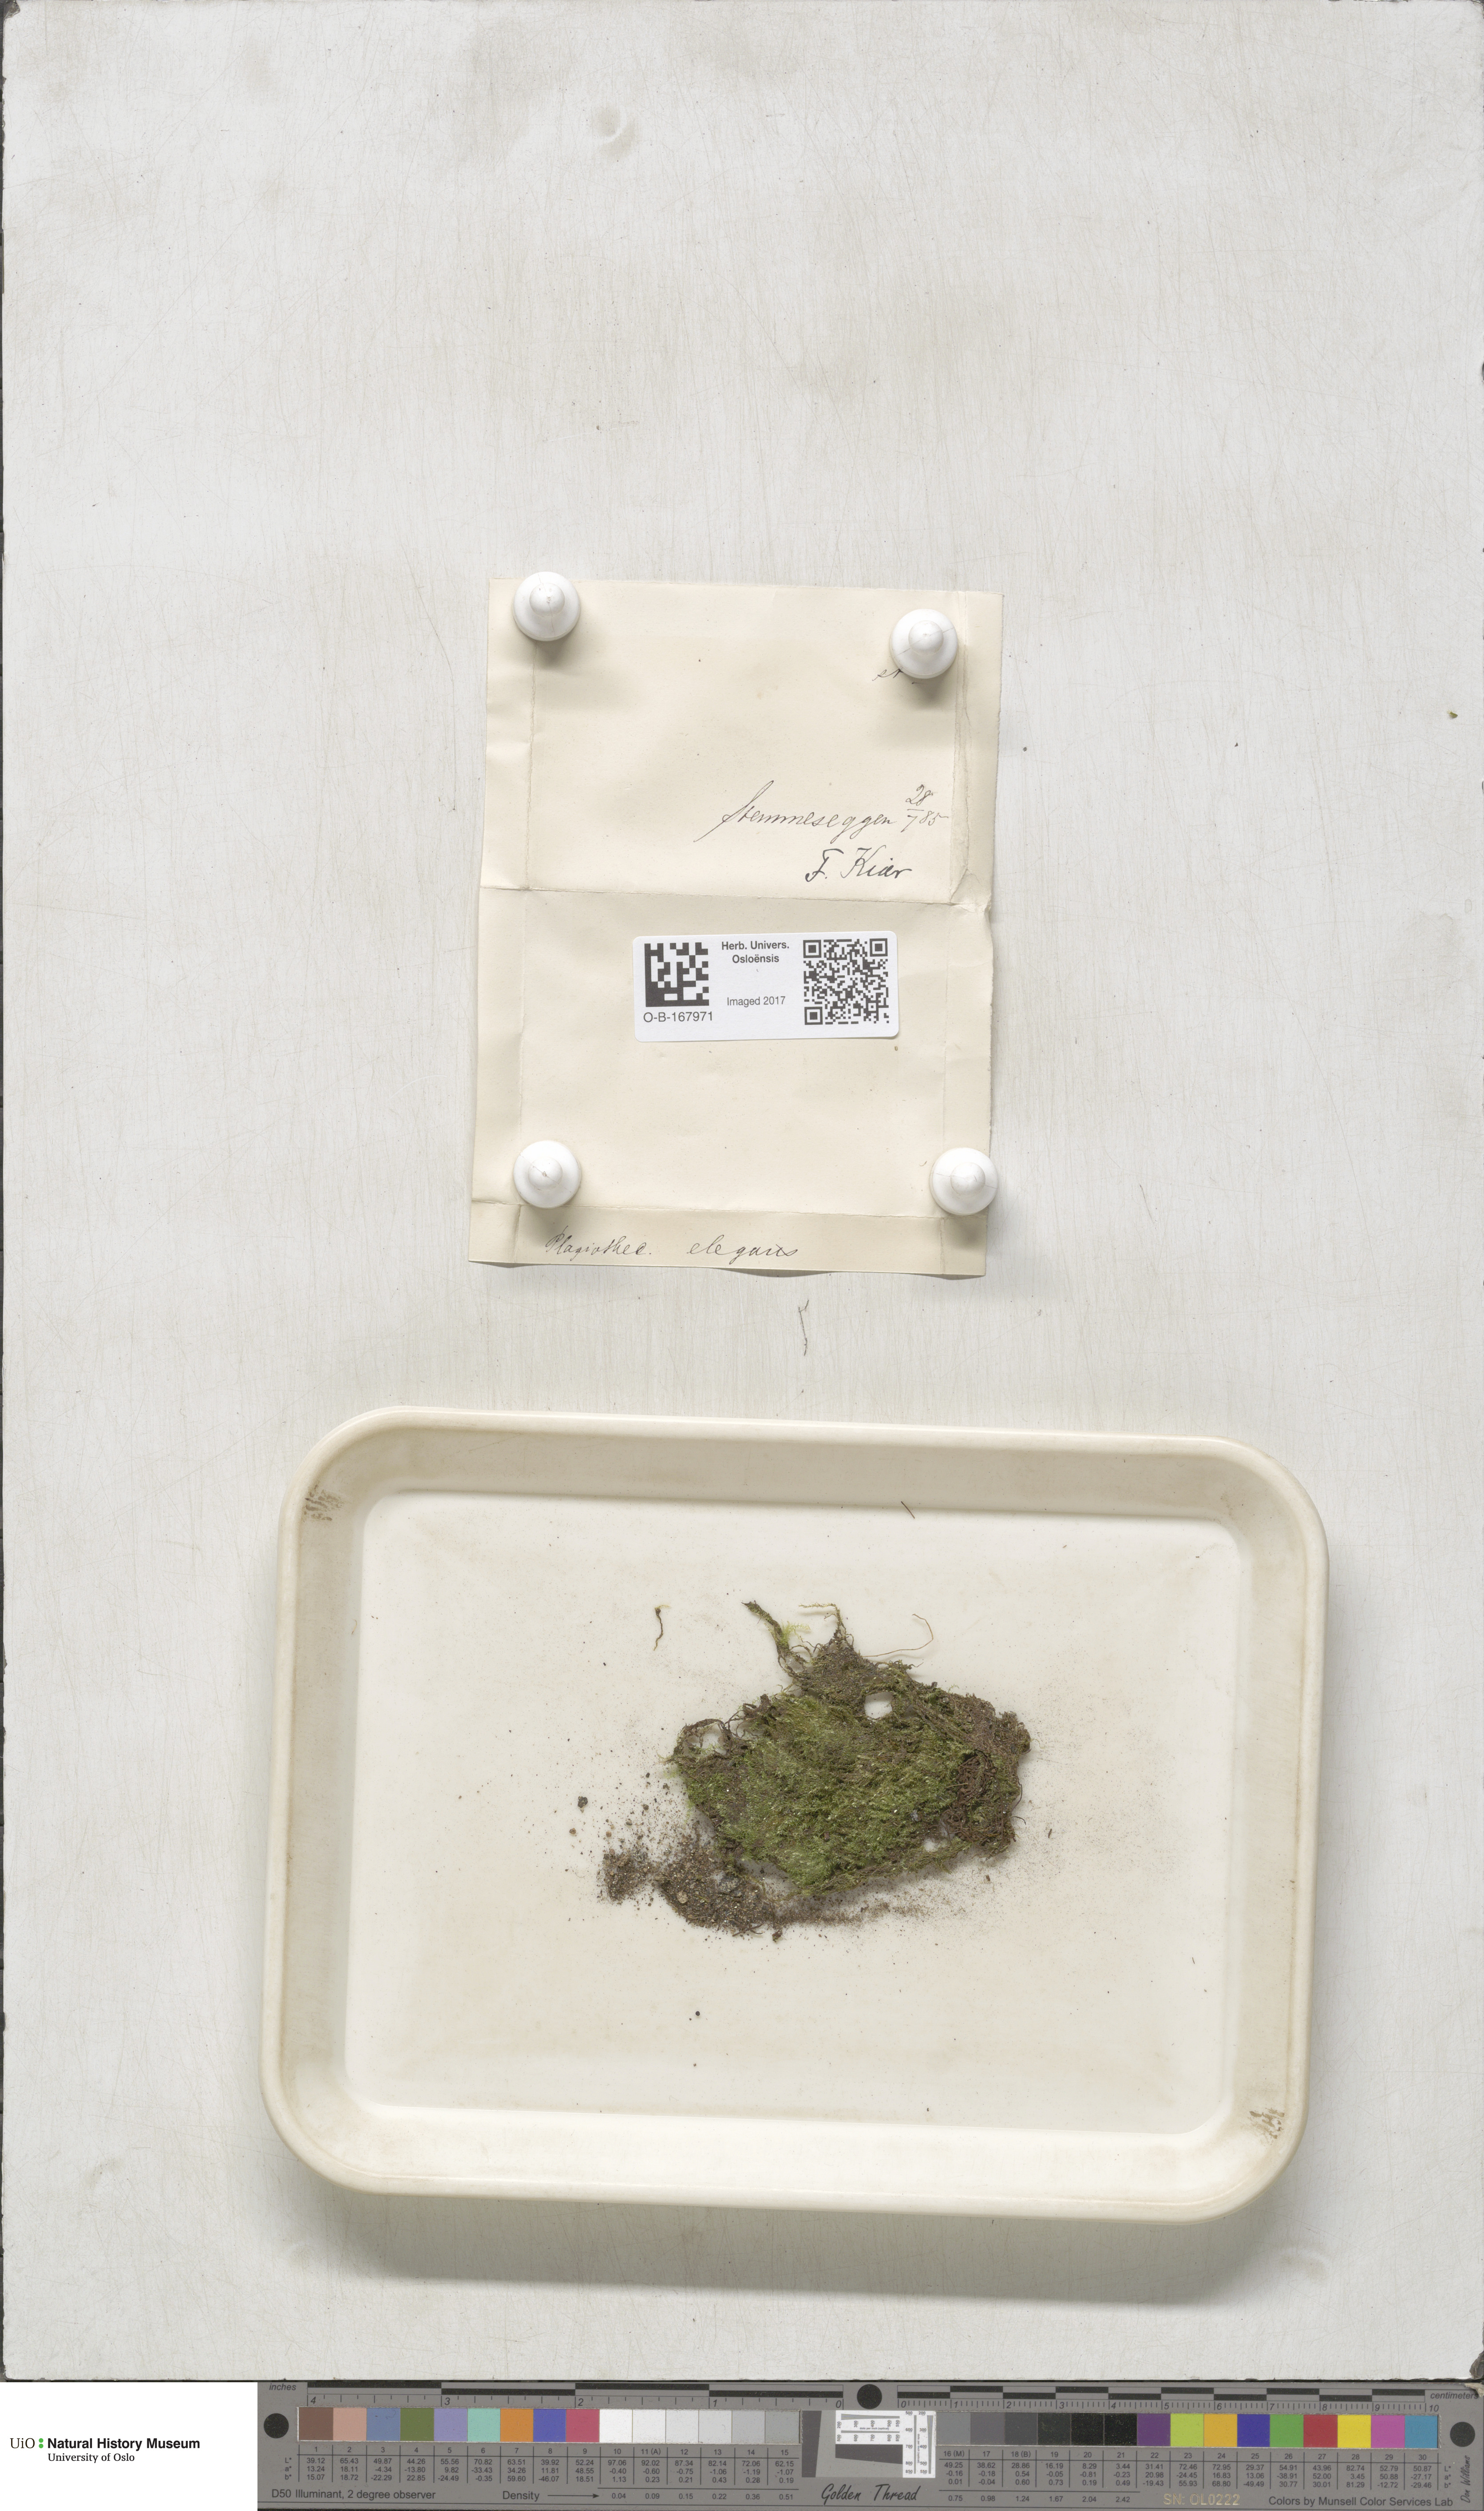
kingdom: Plantae
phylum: Bryophyta
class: Bryopsida
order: Hypnales
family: Plagiotheciaceae
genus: Pseudotaxiphyllum
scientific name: Pseudotaxiphyllum elegans
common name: Elegant silk moss
